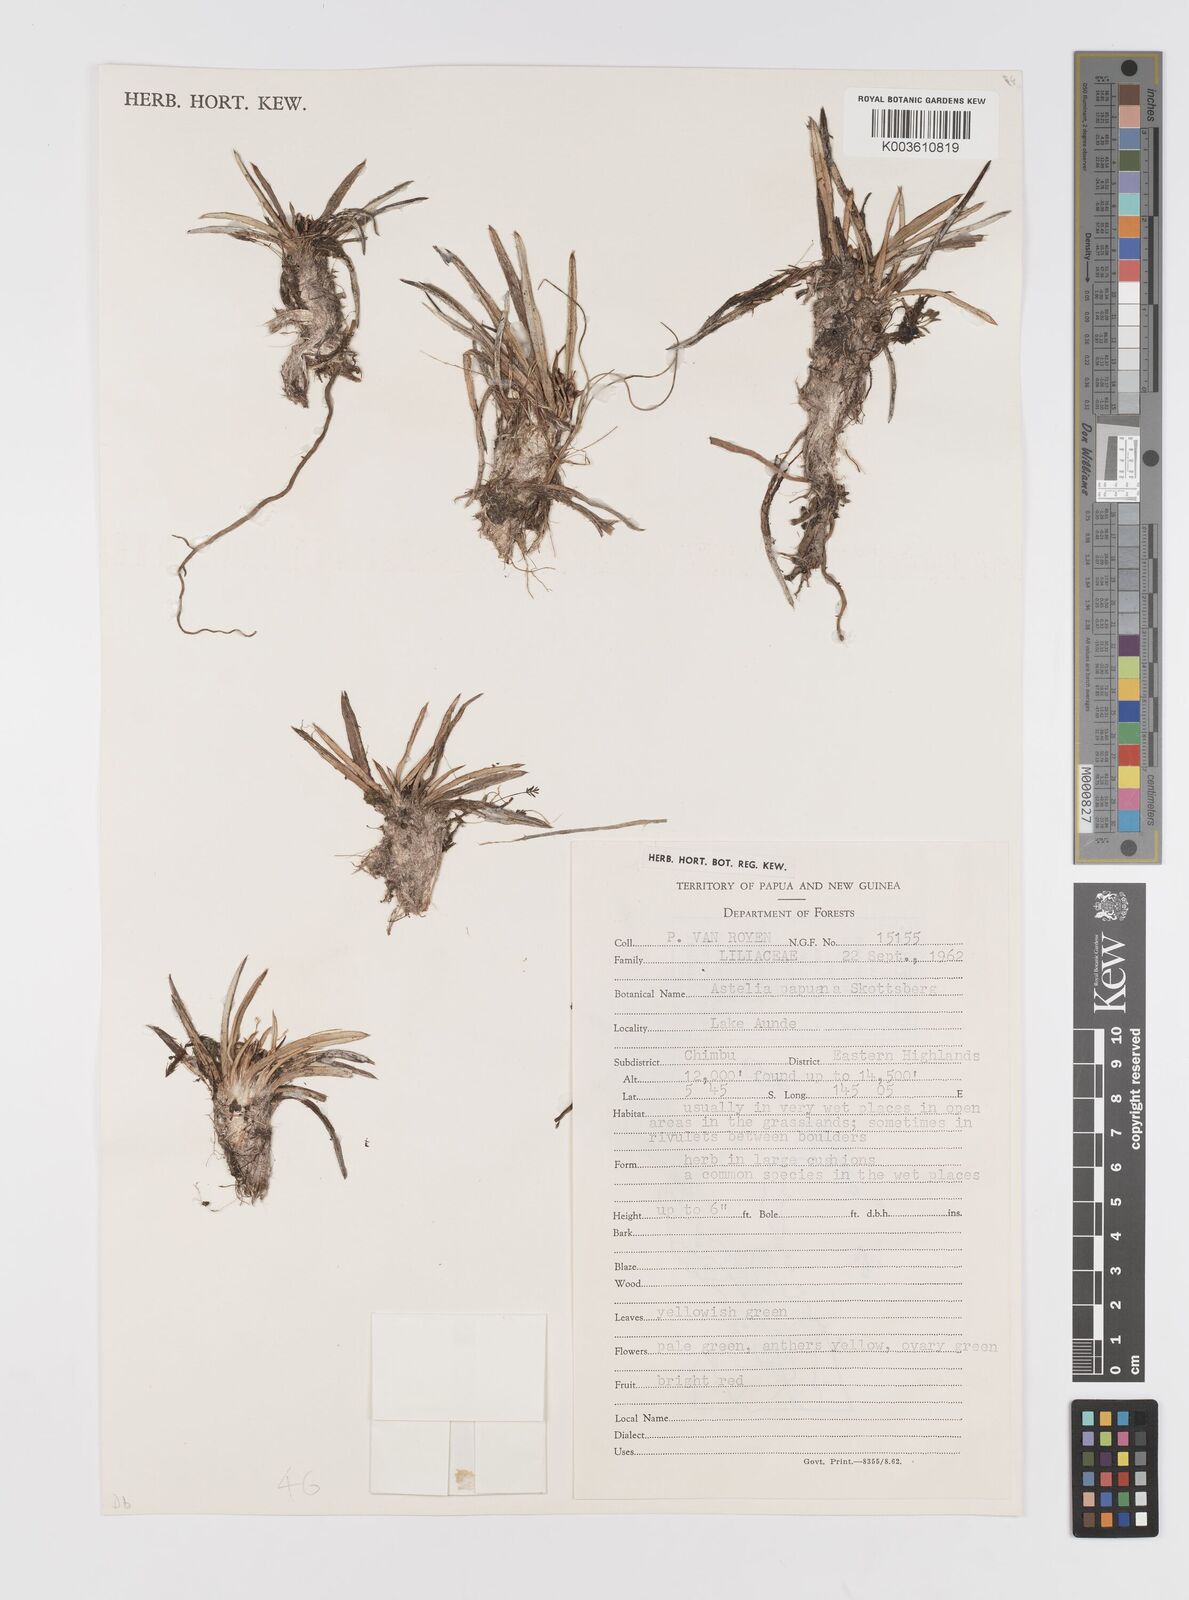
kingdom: Plantae
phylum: Tracheophyta
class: Liliopsida
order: Asparagales
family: Asteliaceae
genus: Astelia
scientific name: Astelia papuana
